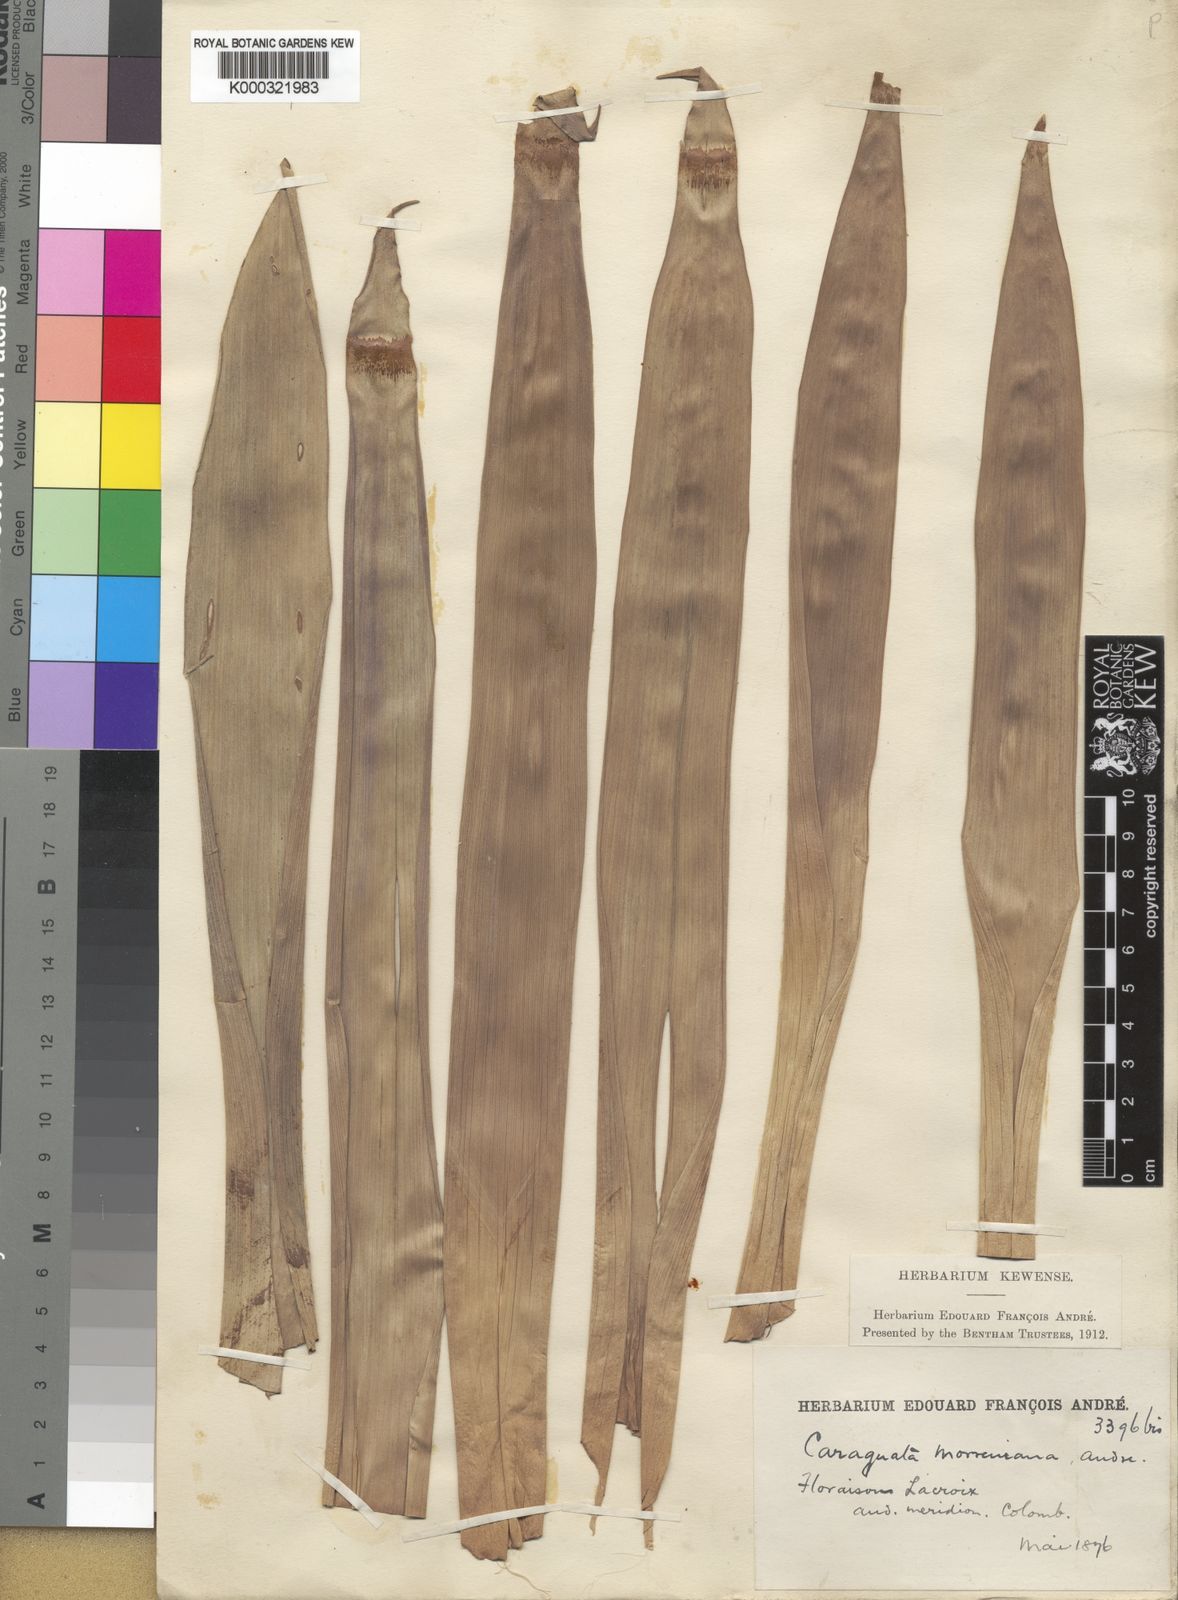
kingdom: Plantae
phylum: Tracheophyta
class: Liliopsida
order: Poales
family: Bromeliaceae
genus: Guzmania
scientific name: Guzmania
